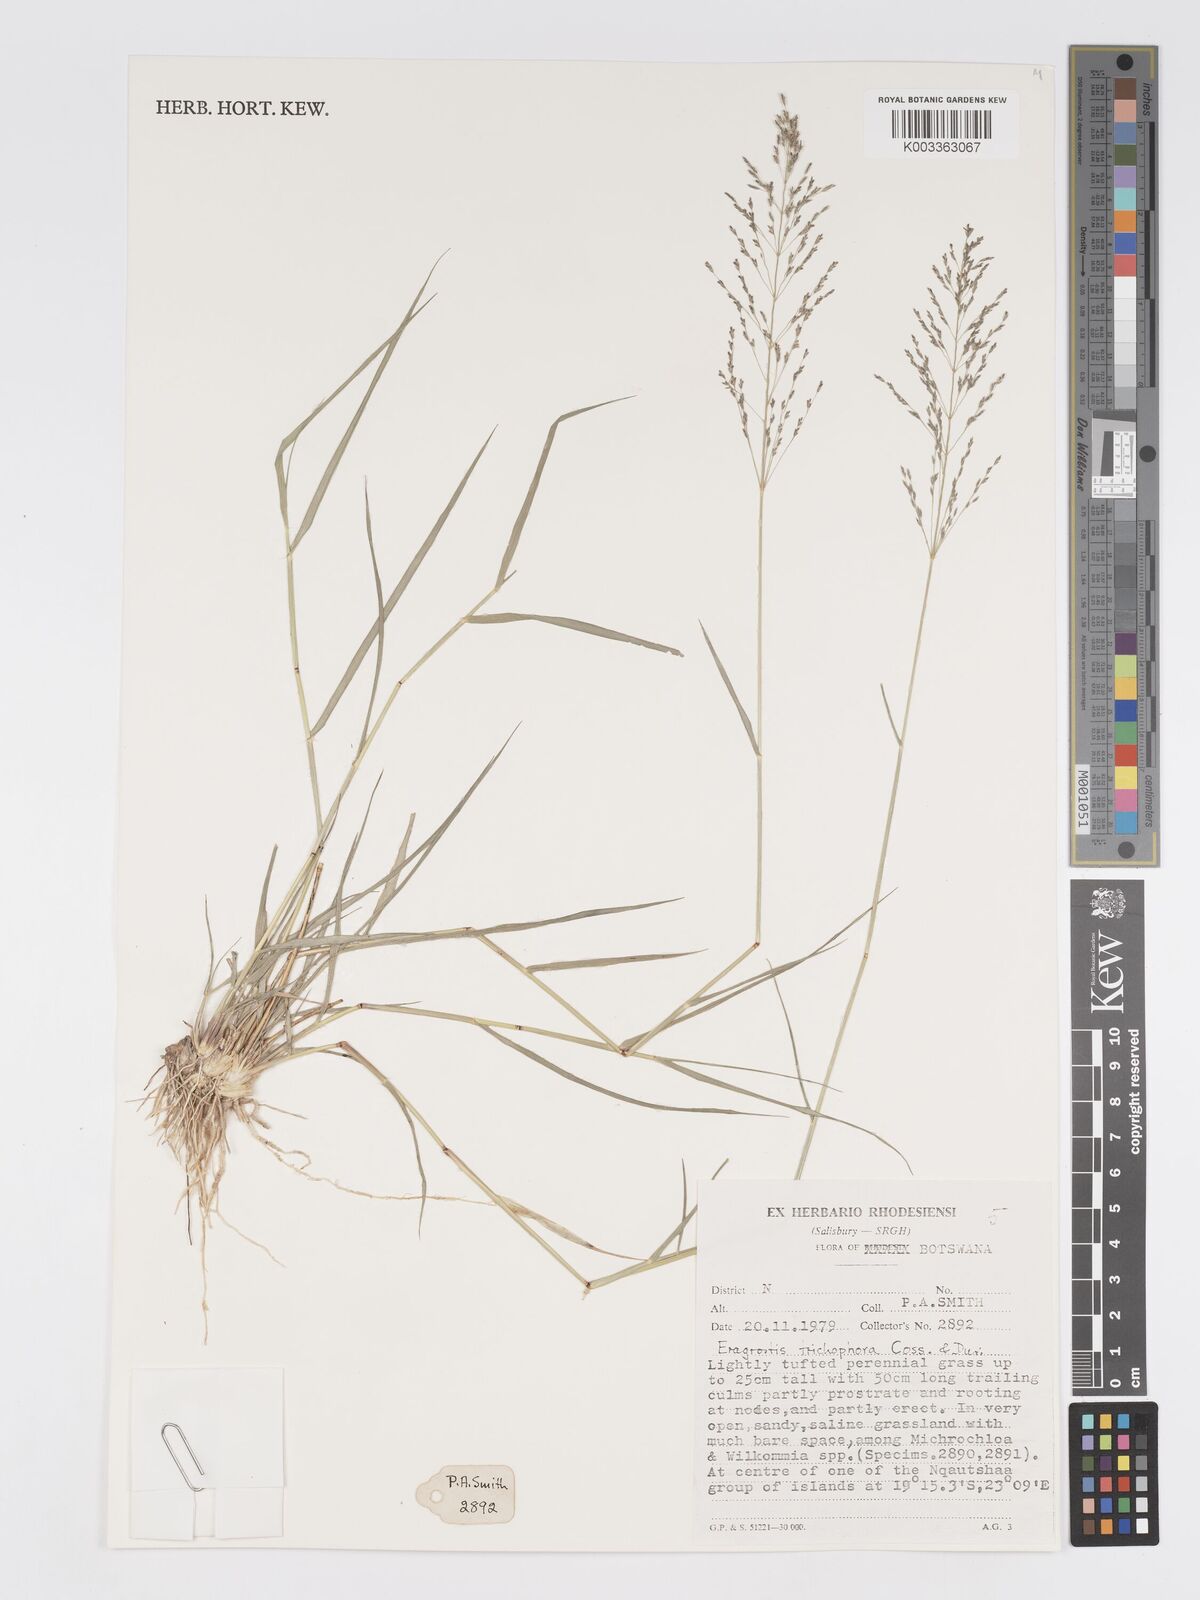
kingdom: Plantae
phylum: Tracheophyta
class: Liliopsida
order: Poales
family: Poaceae
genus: Eragrostis
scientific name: Eragrostis cylindriflora
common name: Cylinderflower lovegrass
